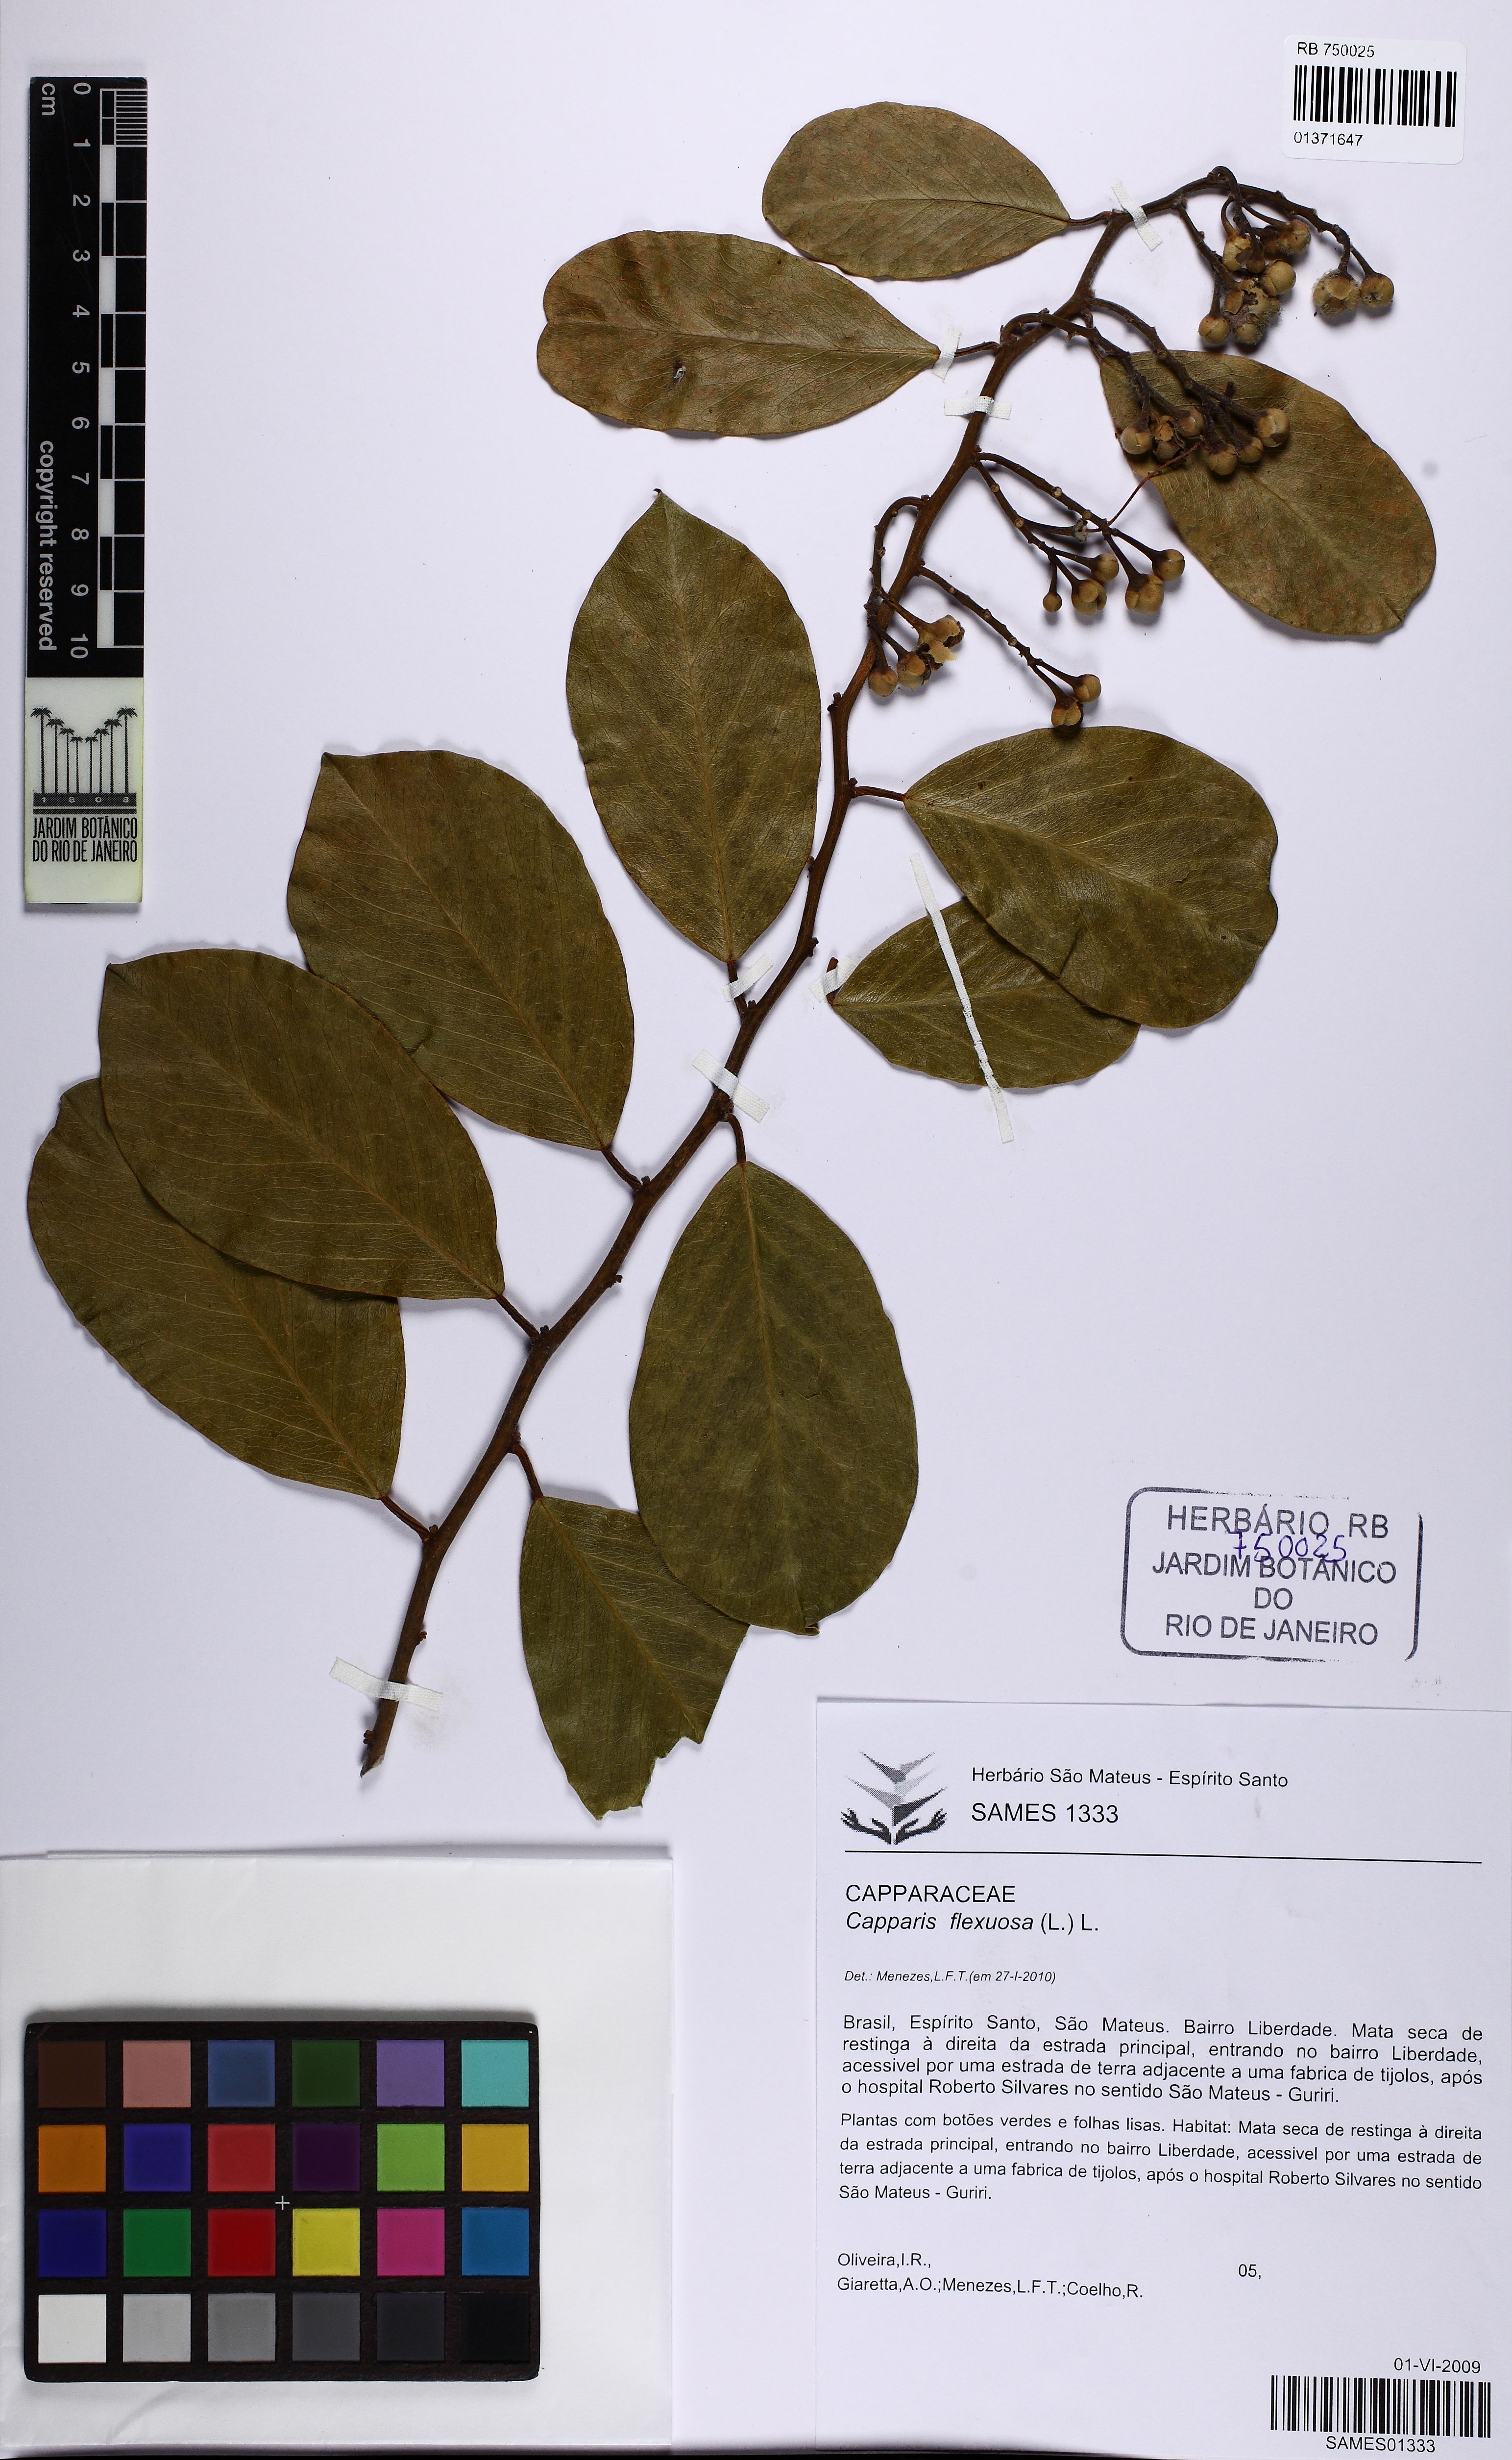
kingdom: Plantae
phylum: Tracheophyta
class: Magnoliopsida
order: Brassicales
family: Capparaceae
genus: Cynophalla
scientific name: Cynophalla flexuosa
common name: Capertree
